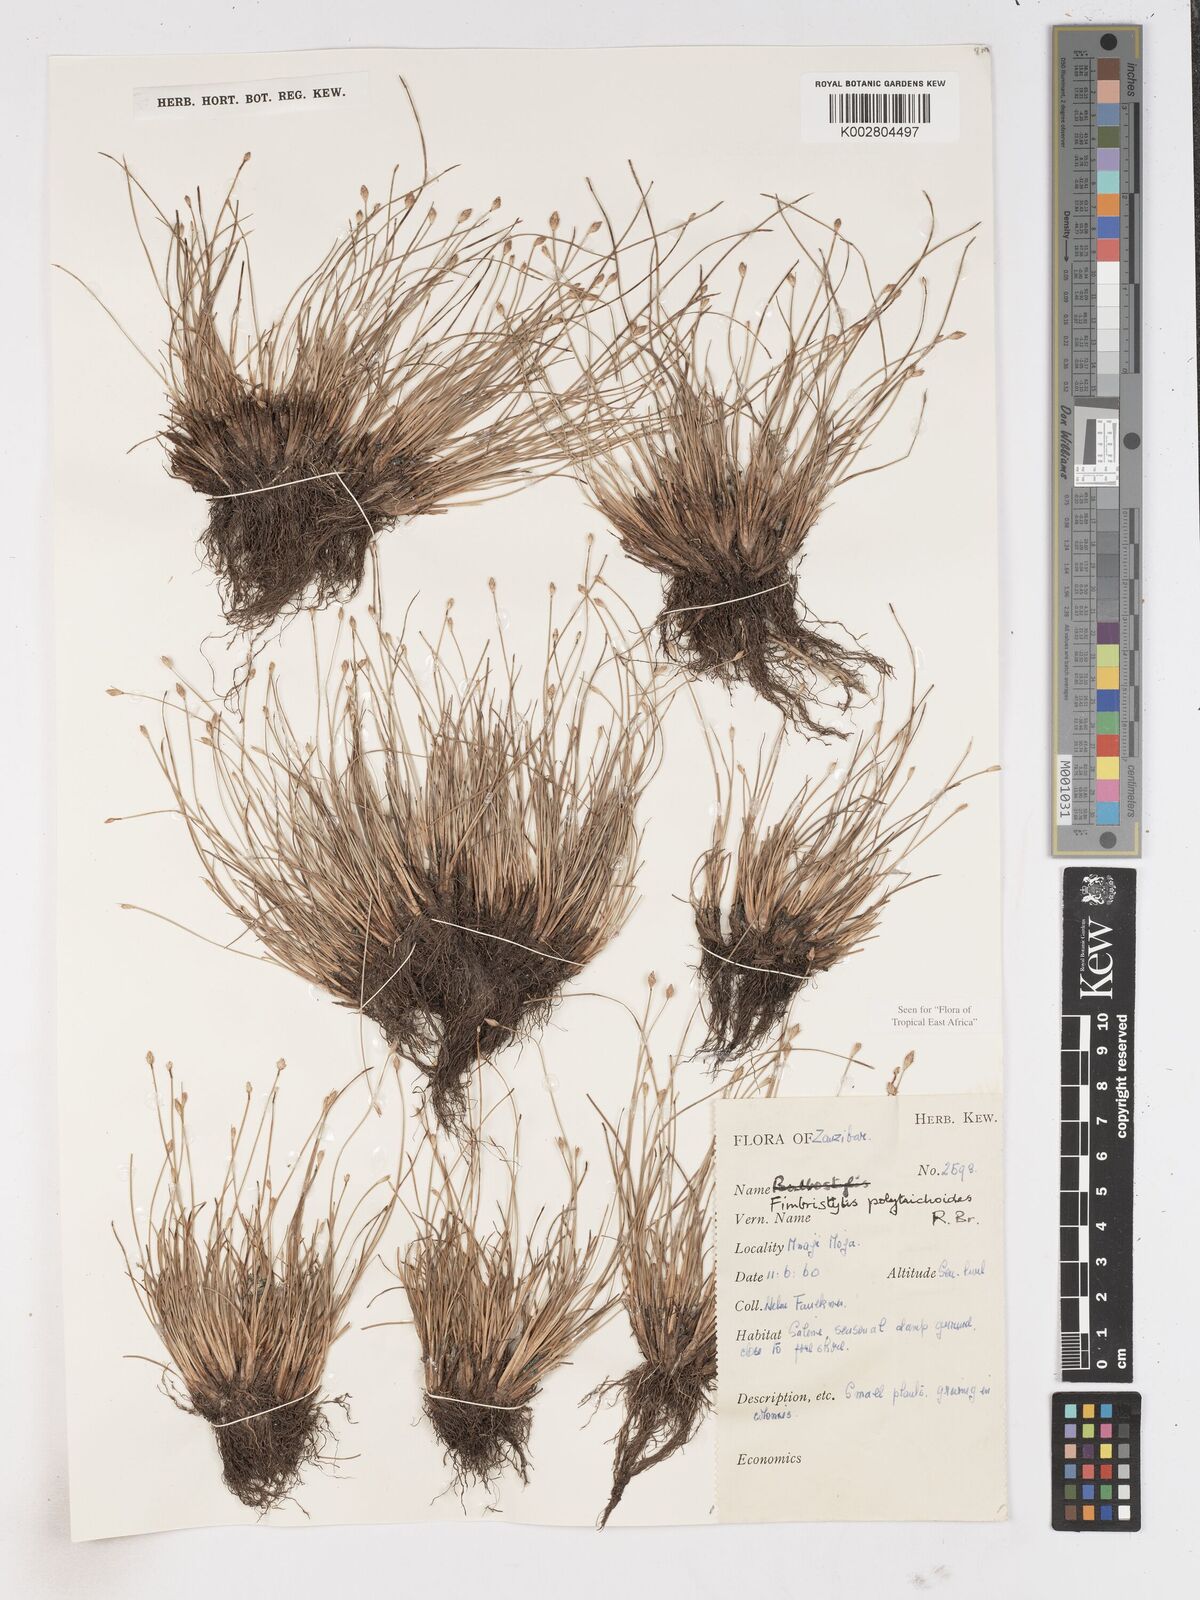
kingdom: Plantae
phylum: Tracheophyta
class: Liliopsida
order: Poales
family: Cyperaceae
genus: Fimbristylis
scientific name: Fimbristylis polytrichoides
